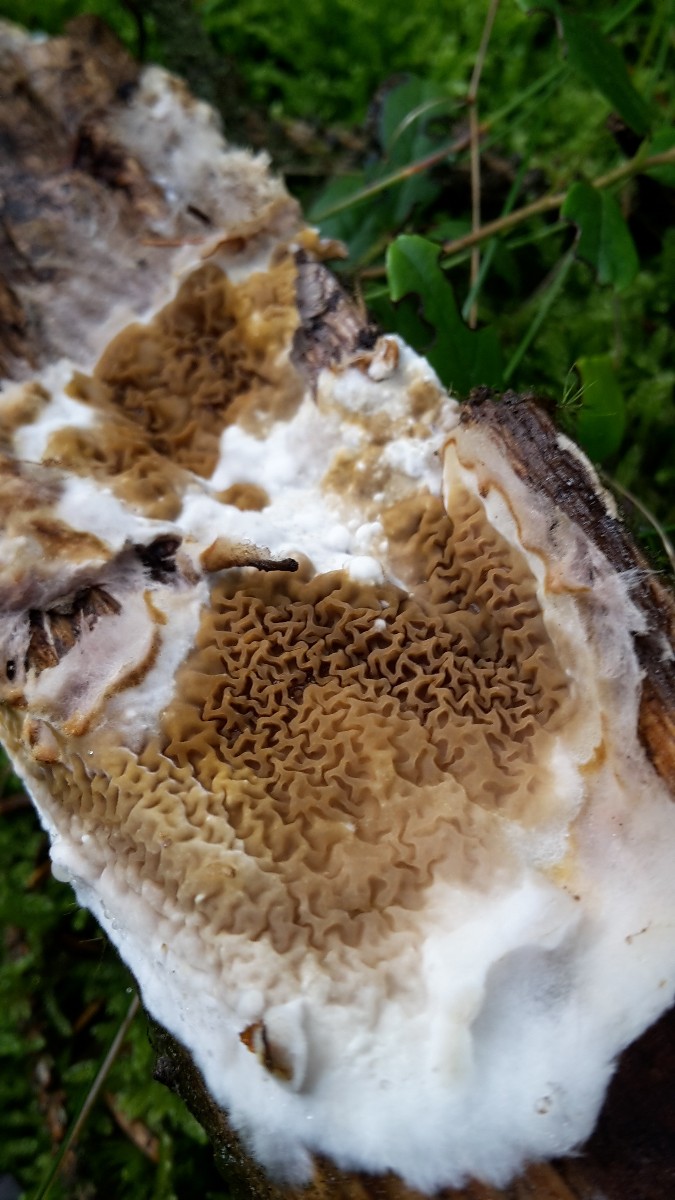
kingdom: Fungi
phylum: Basidiomycota
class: Agaricomycetes
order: Boletales
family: Serpulaceae
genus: Serpula
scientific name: Serpula himantioides
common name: tyndkødet hussvamp
